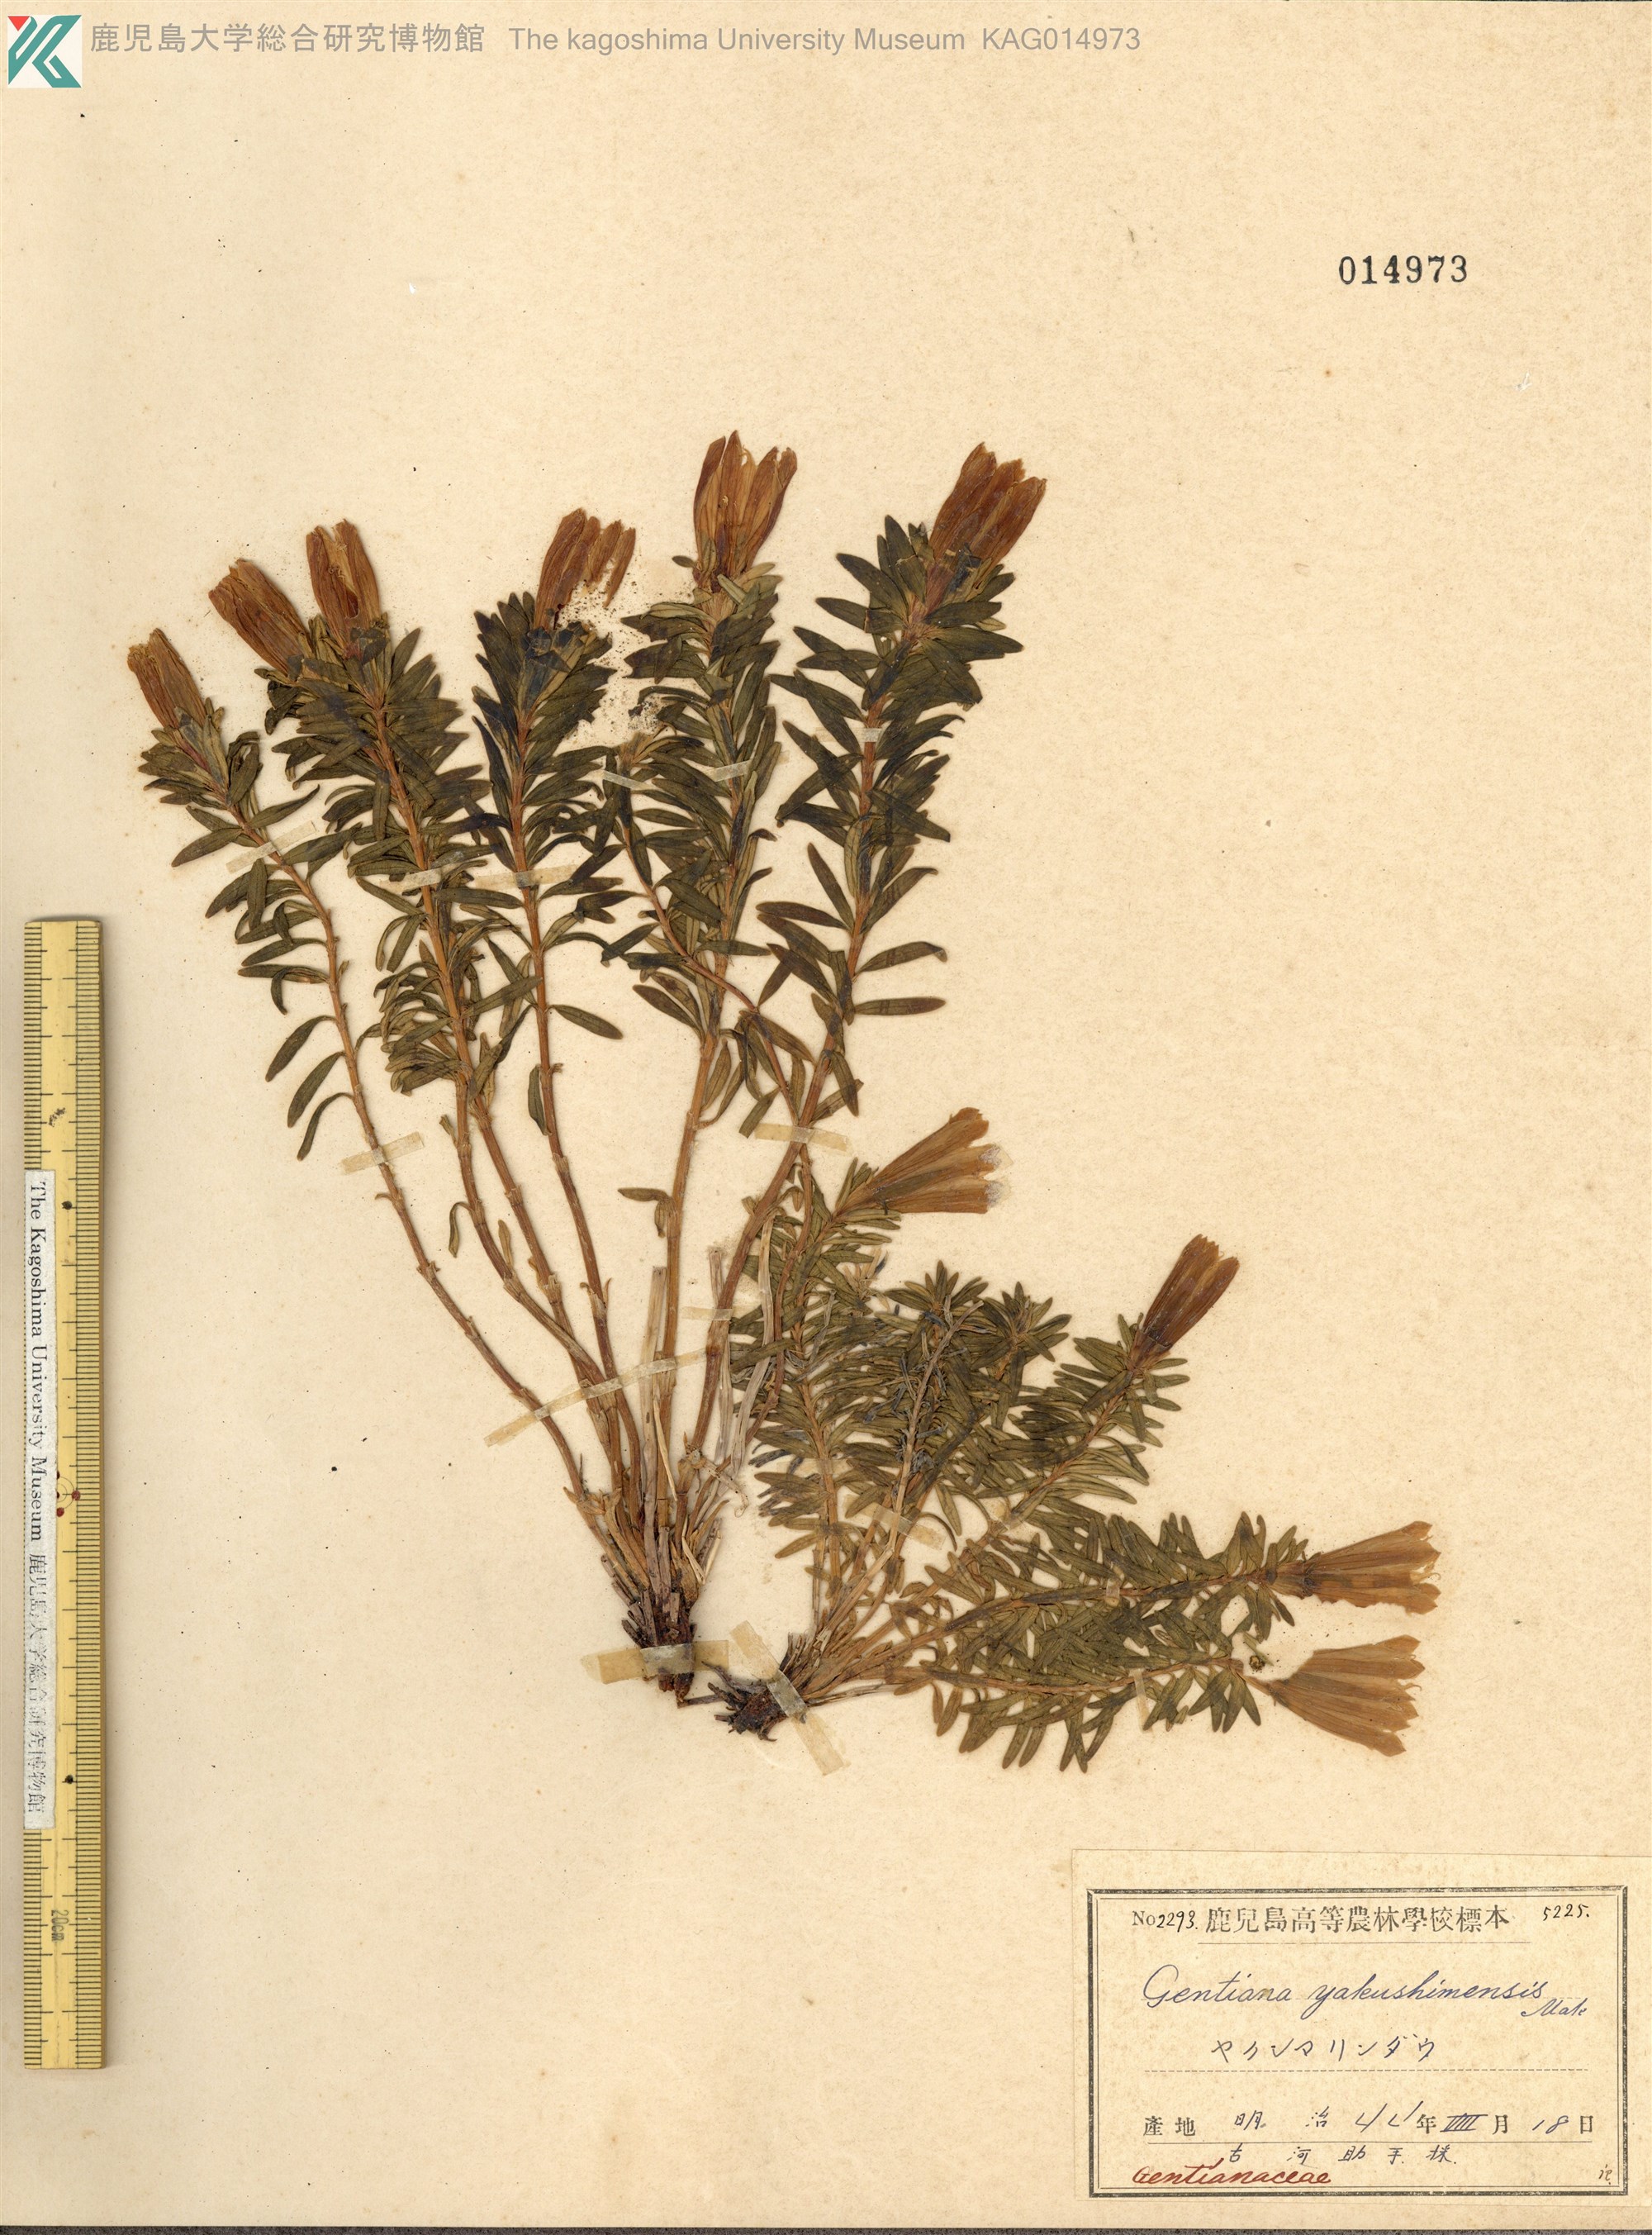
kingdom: Plantae
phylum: Tracheophyta
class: Magnoliopsida
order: Gentianales
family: Gentianaceae
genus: Gentiana
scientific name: Gentiana yakushimensis
